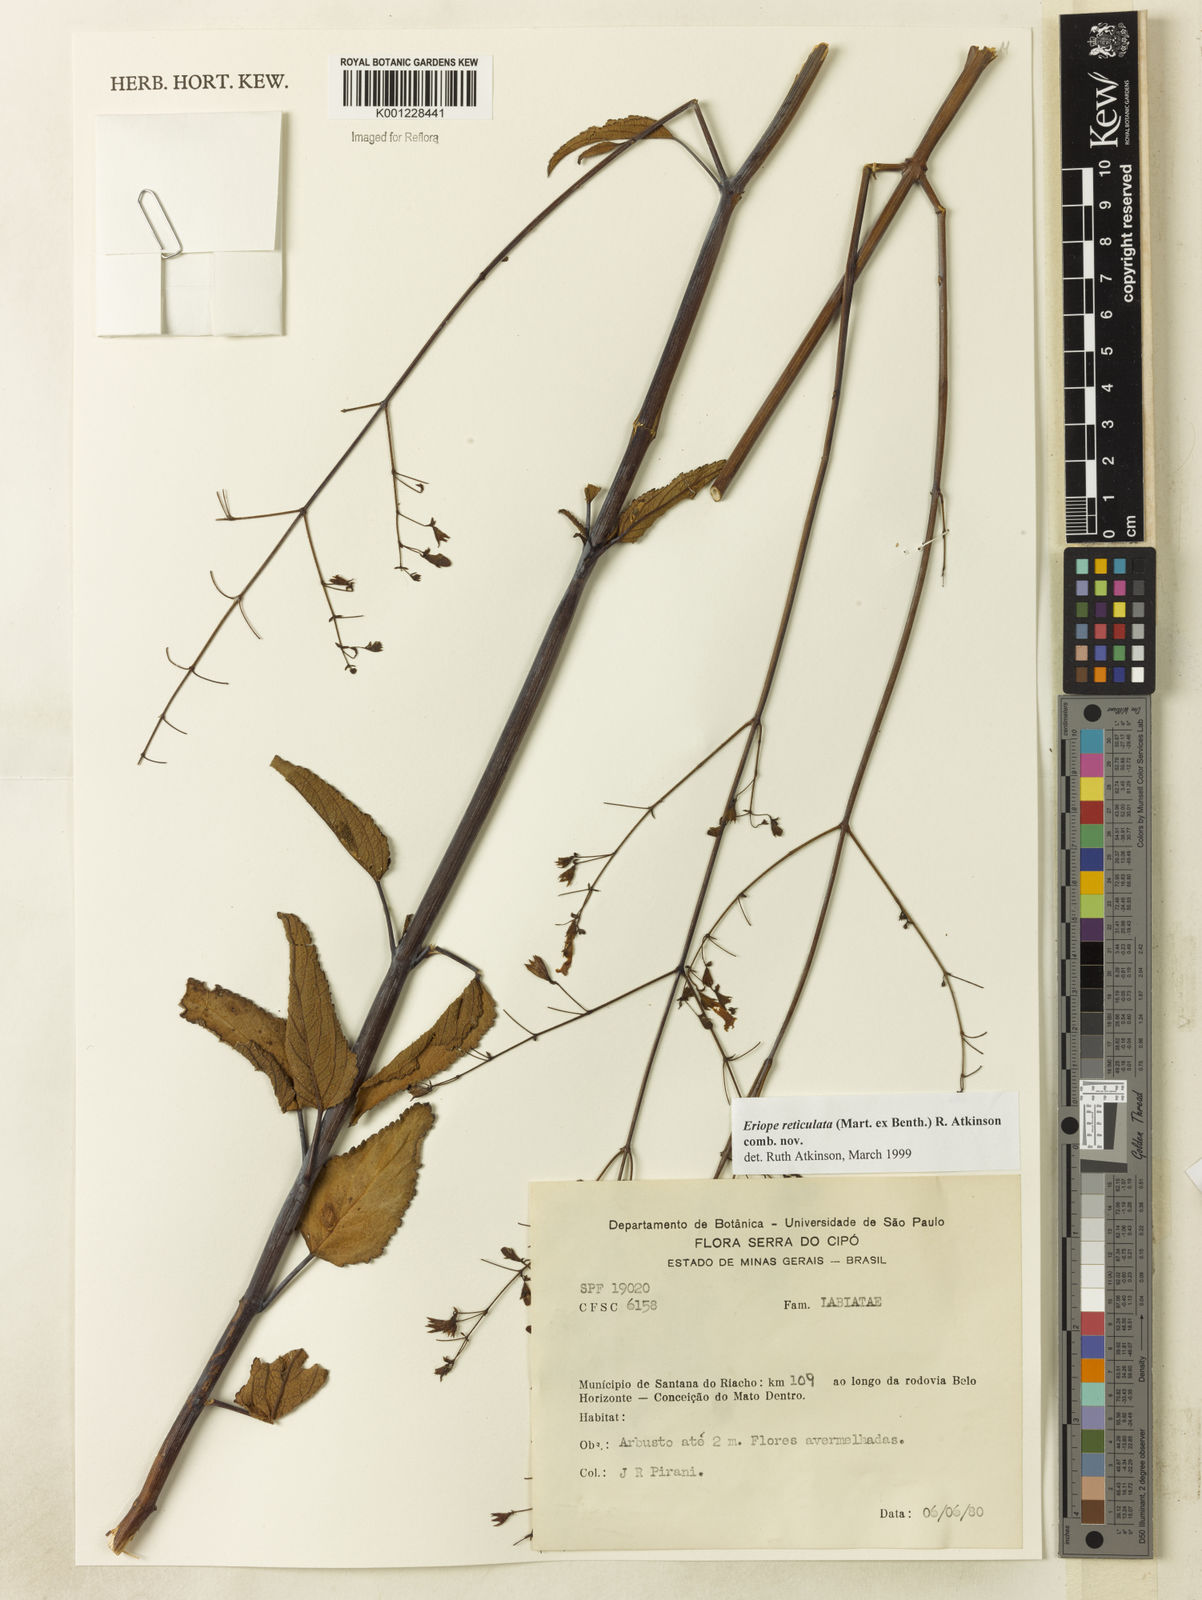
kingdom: Plantae
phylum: Tracheophyta
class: Magnoliopsida
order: Lamiales
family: Lamiaceae
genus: Hypenia
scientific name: Hypenia reticulata
